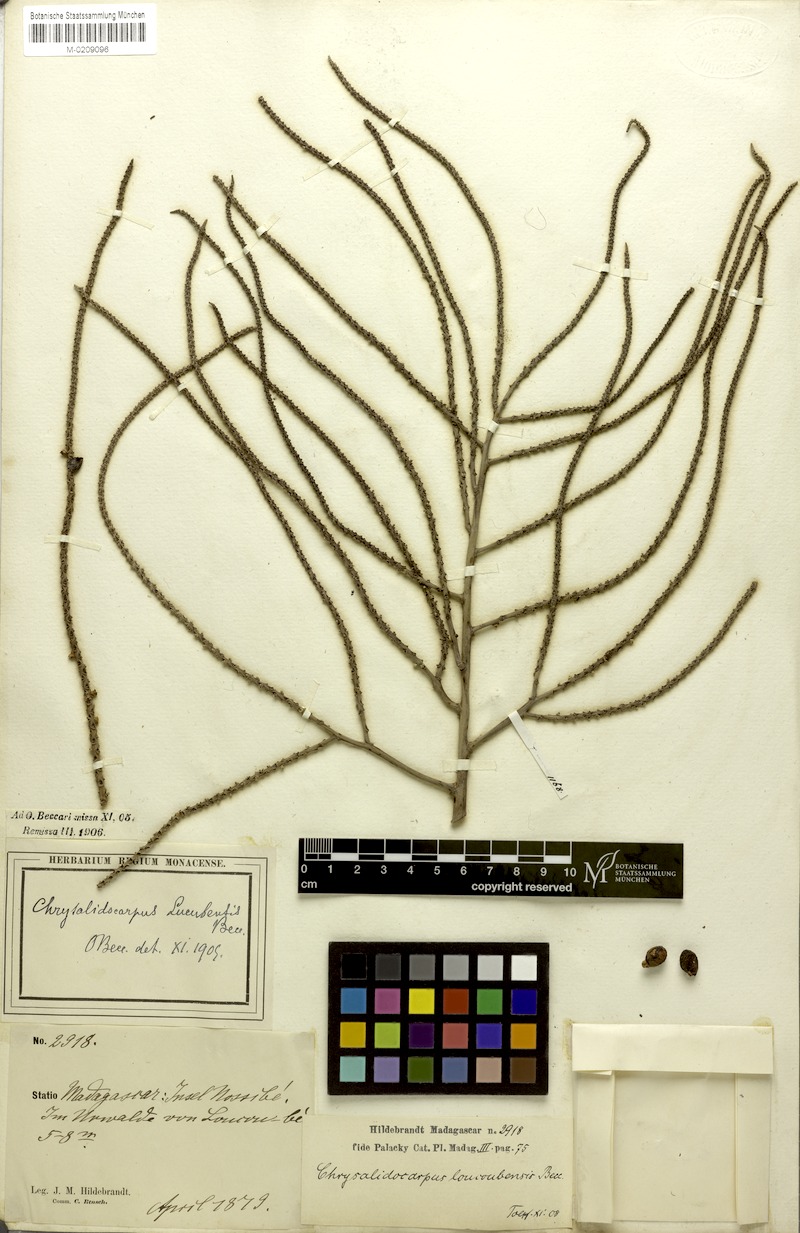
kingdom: Plantae
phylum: Tracheophyta
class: Liliopsida
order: Arecales
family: Arecaceae
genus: Dypsis
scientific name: Dypsis madagascariensis
